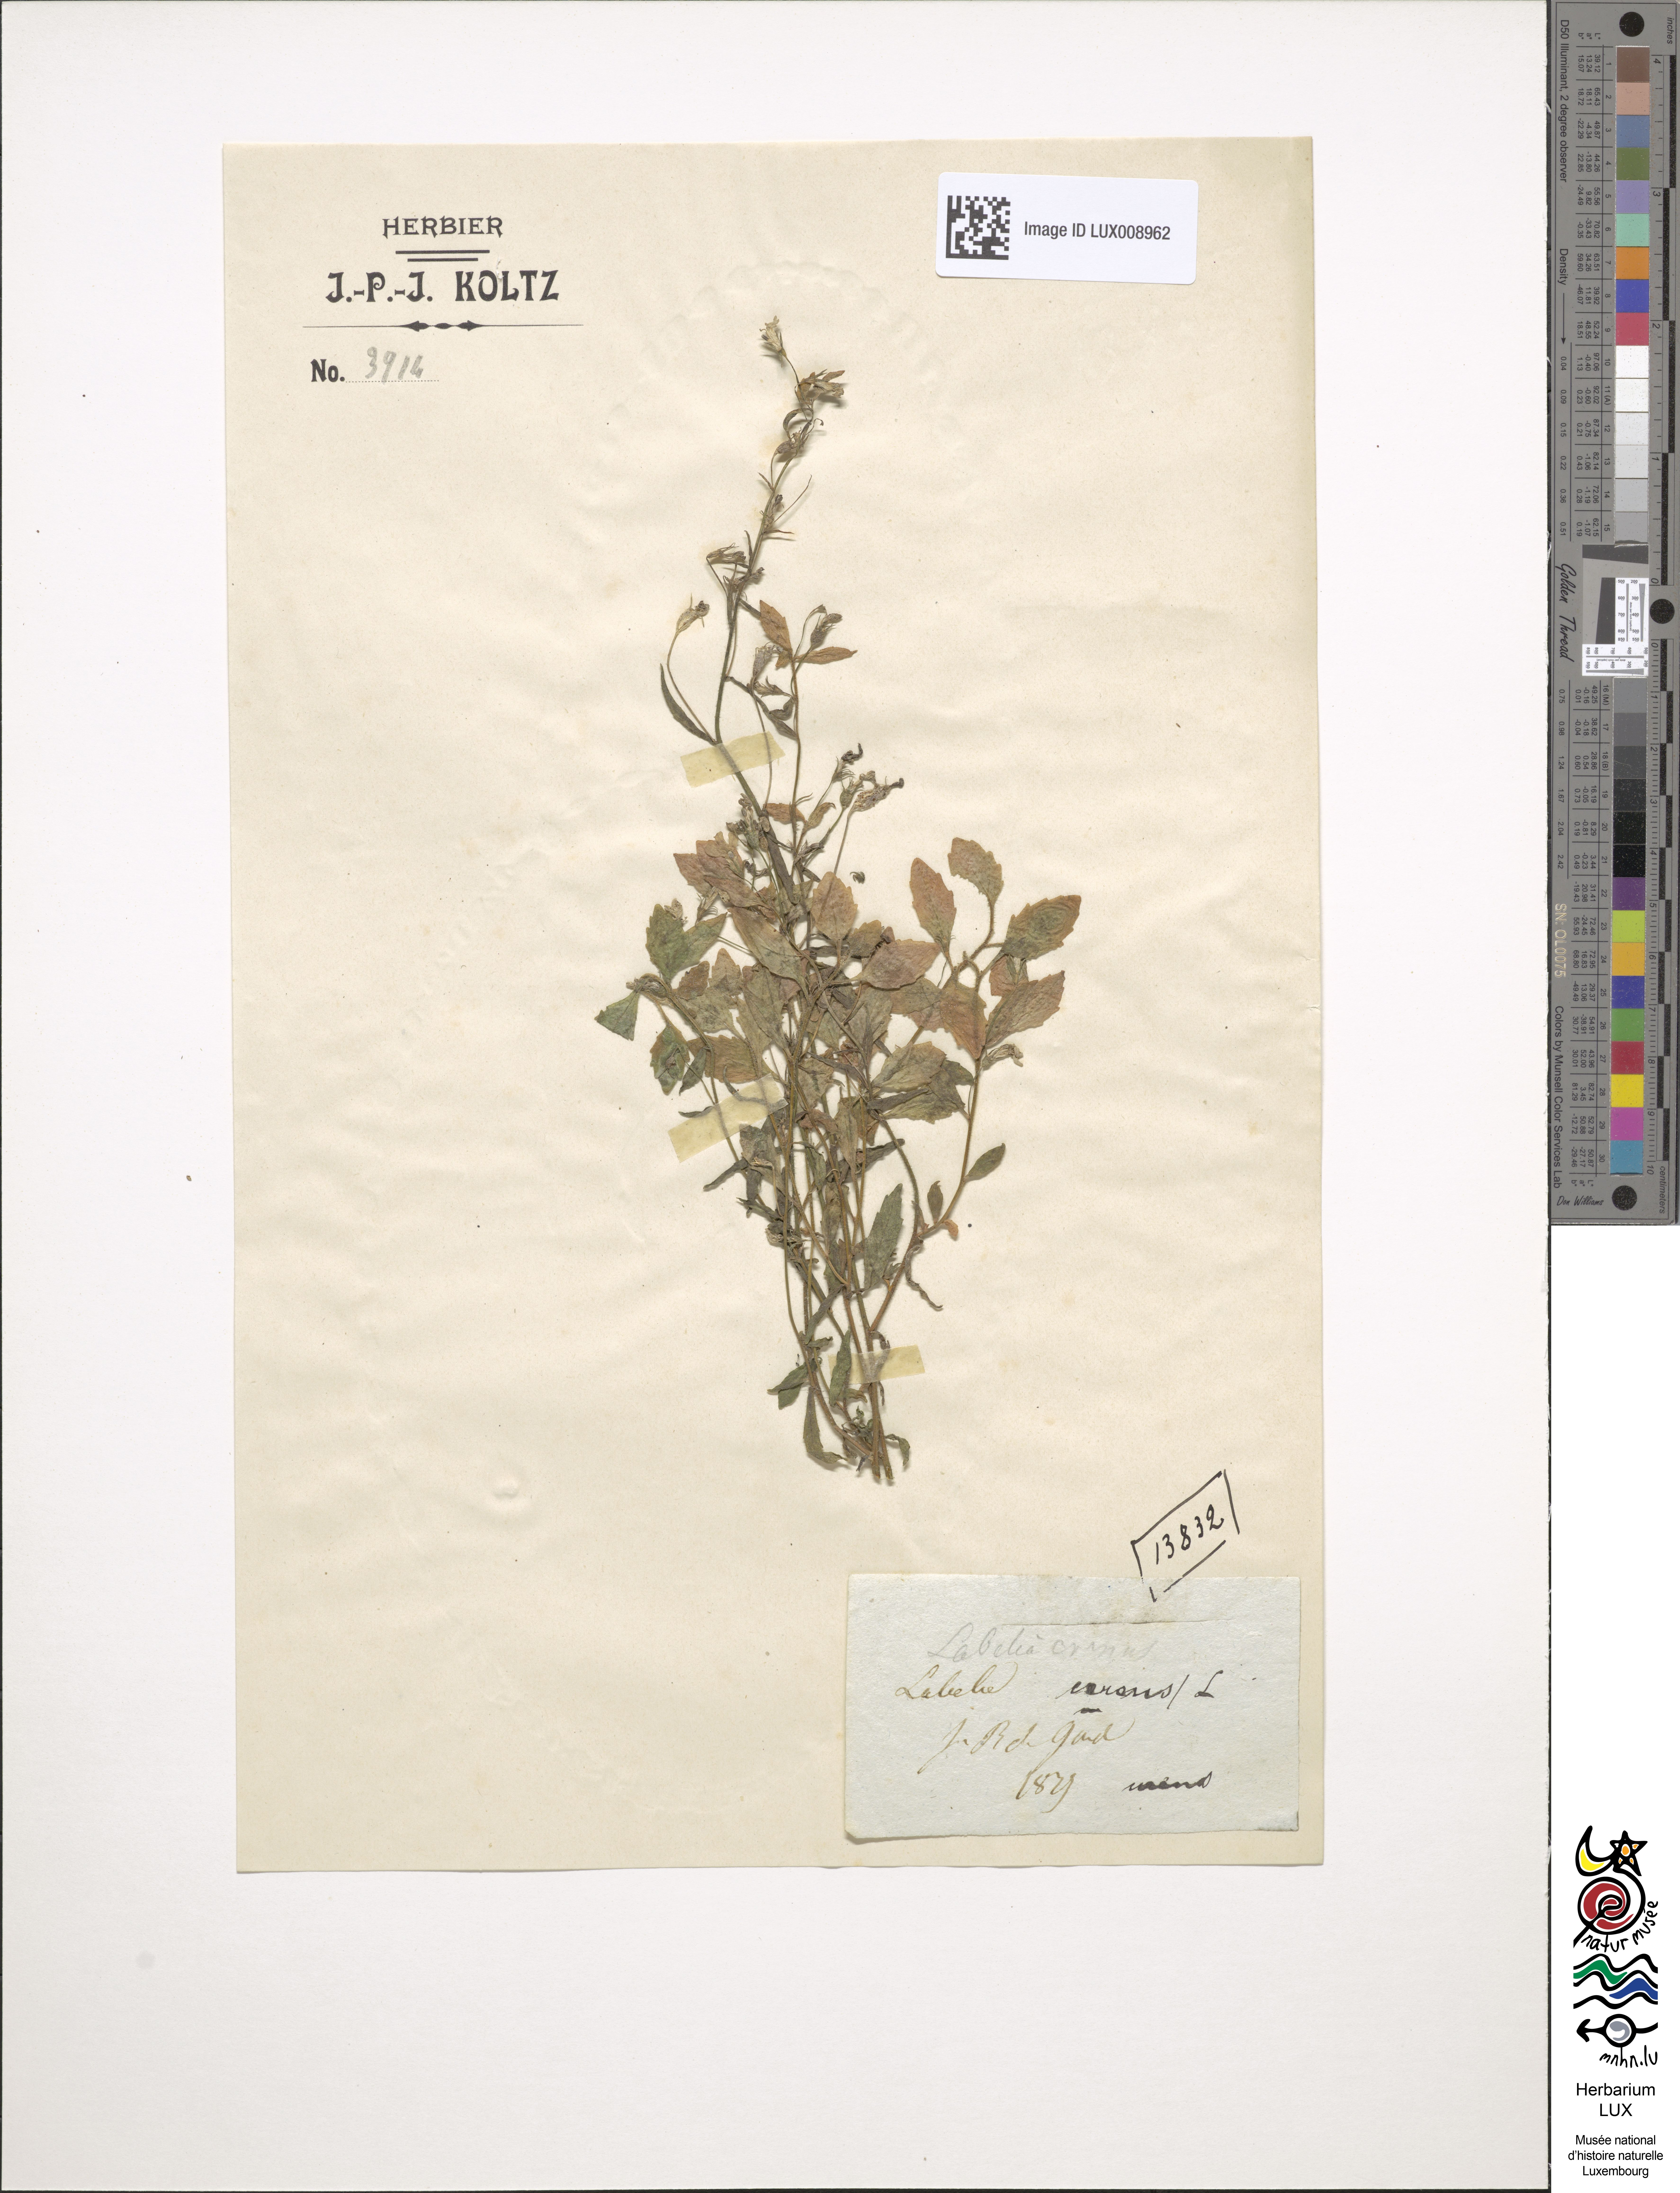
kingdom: Plantae
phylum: Tracheophyta
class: Magnoliopsida
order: Asterales
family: Campanulaceae
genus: Lobelia
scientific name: Lobelia urens
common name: Heath lobelia
